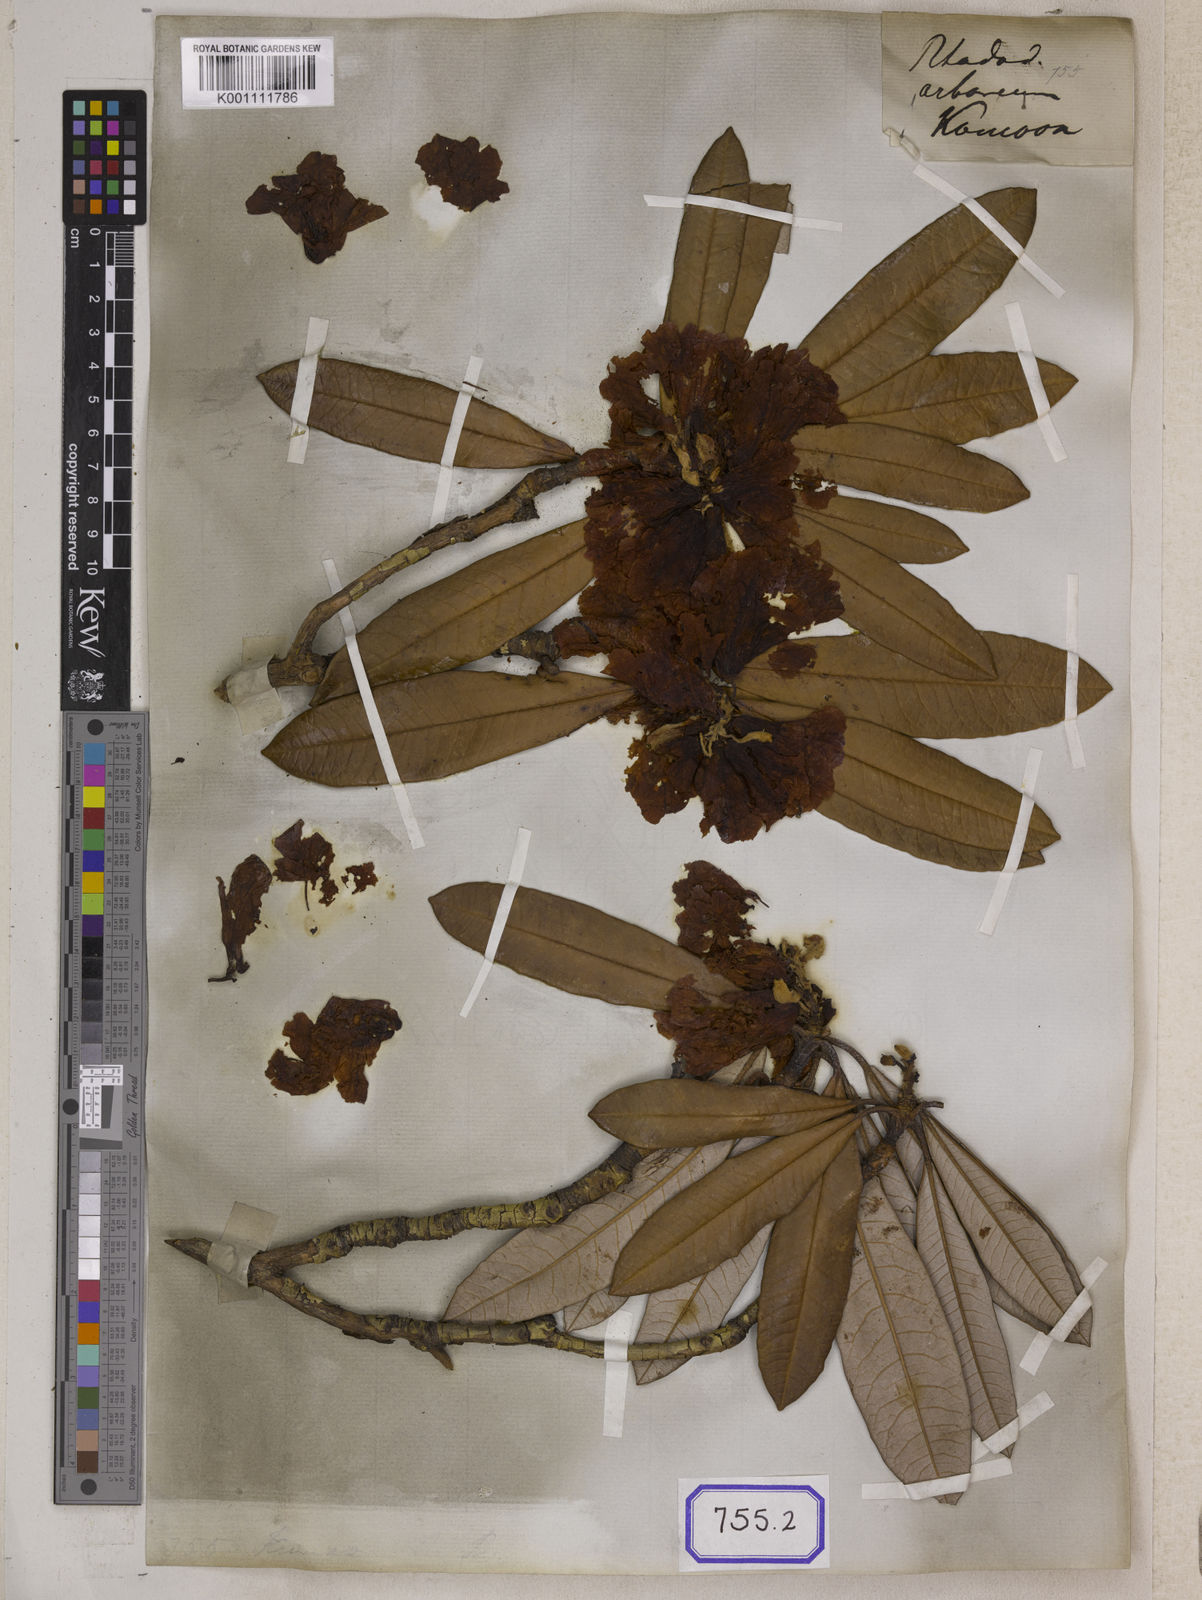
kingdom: Plantae
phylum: Tracheophyta
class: Magnoliopsida
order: Ericales
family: Ericaceae
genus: Rhododendron
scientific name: Rhododendron arboreum
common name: Tree rhododendron
